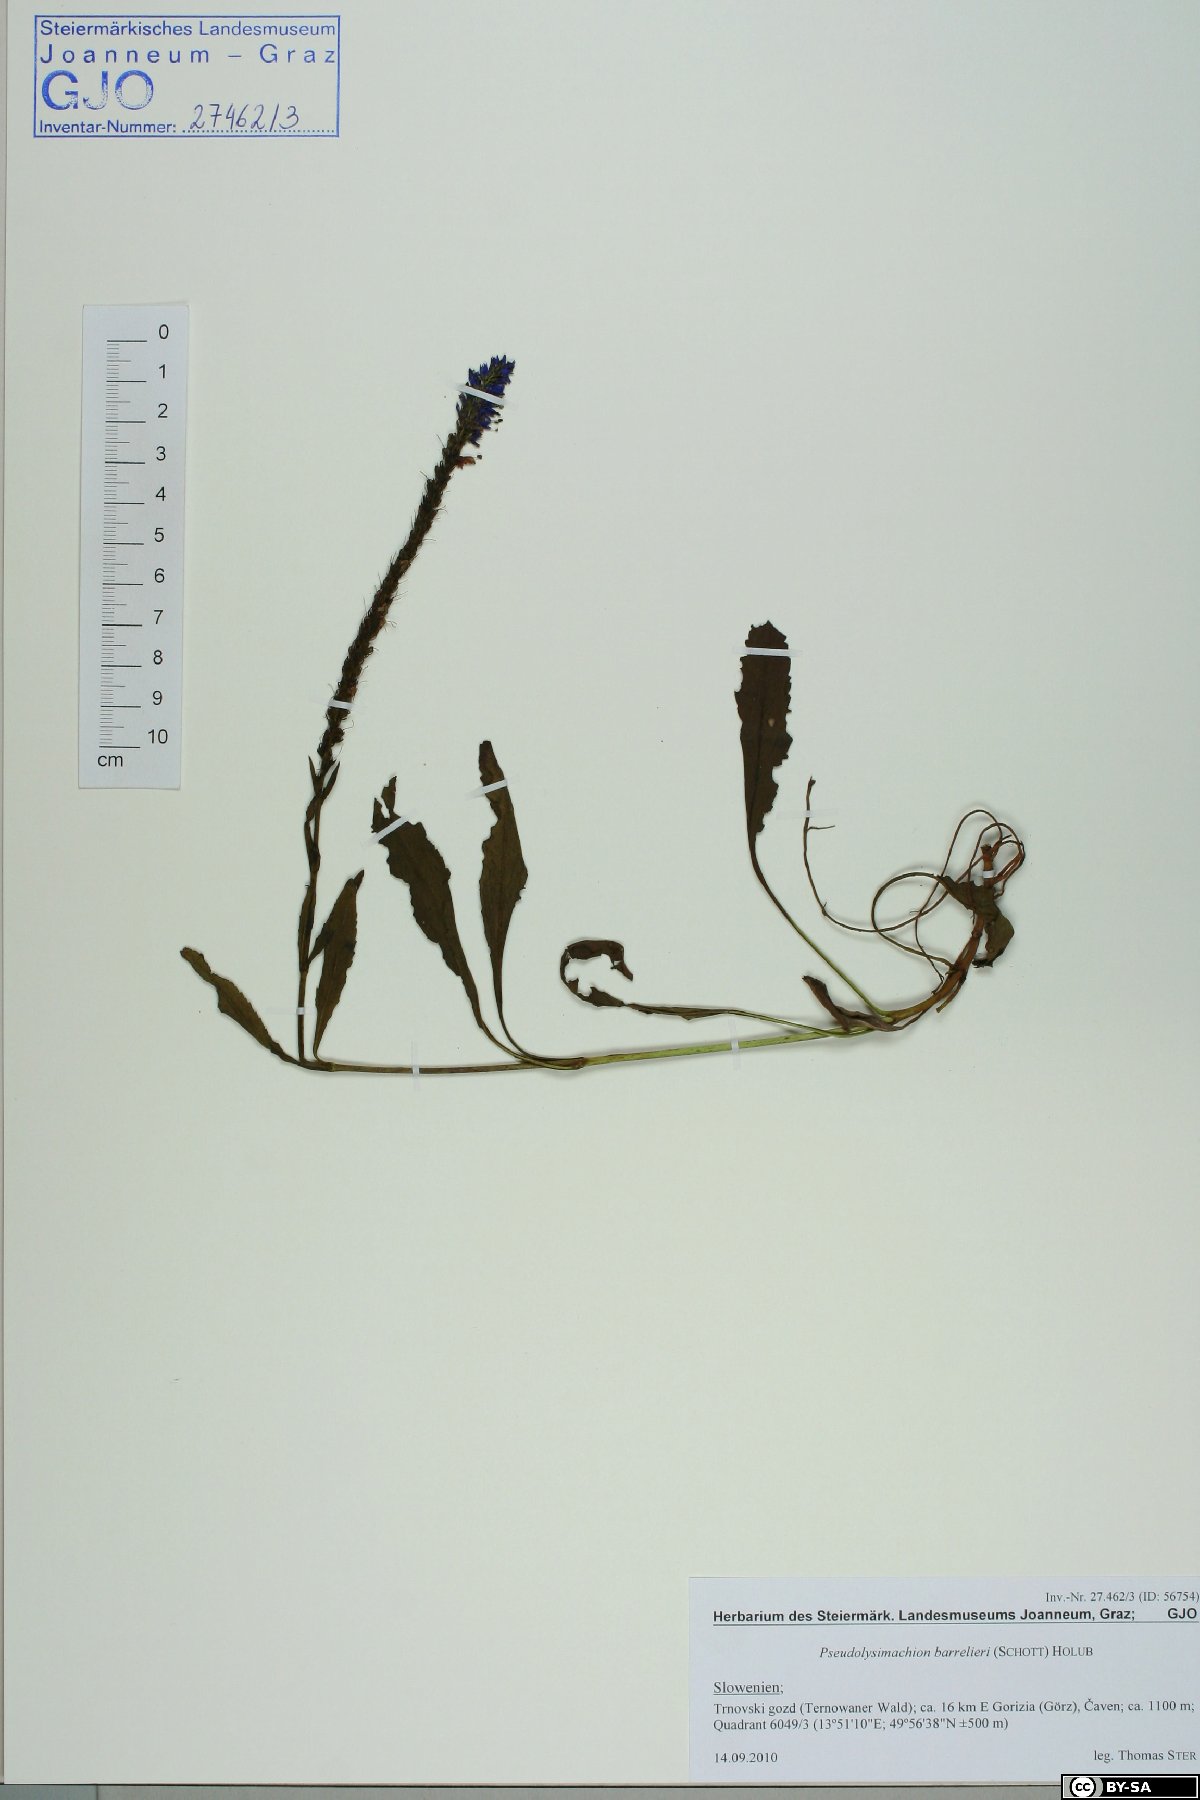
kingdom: Plantae
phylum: Tracheophyta
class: Magnoliopsida
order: Lamiales
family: Plantaginaceae
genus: Veronica
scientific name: Veronica barrelieri
